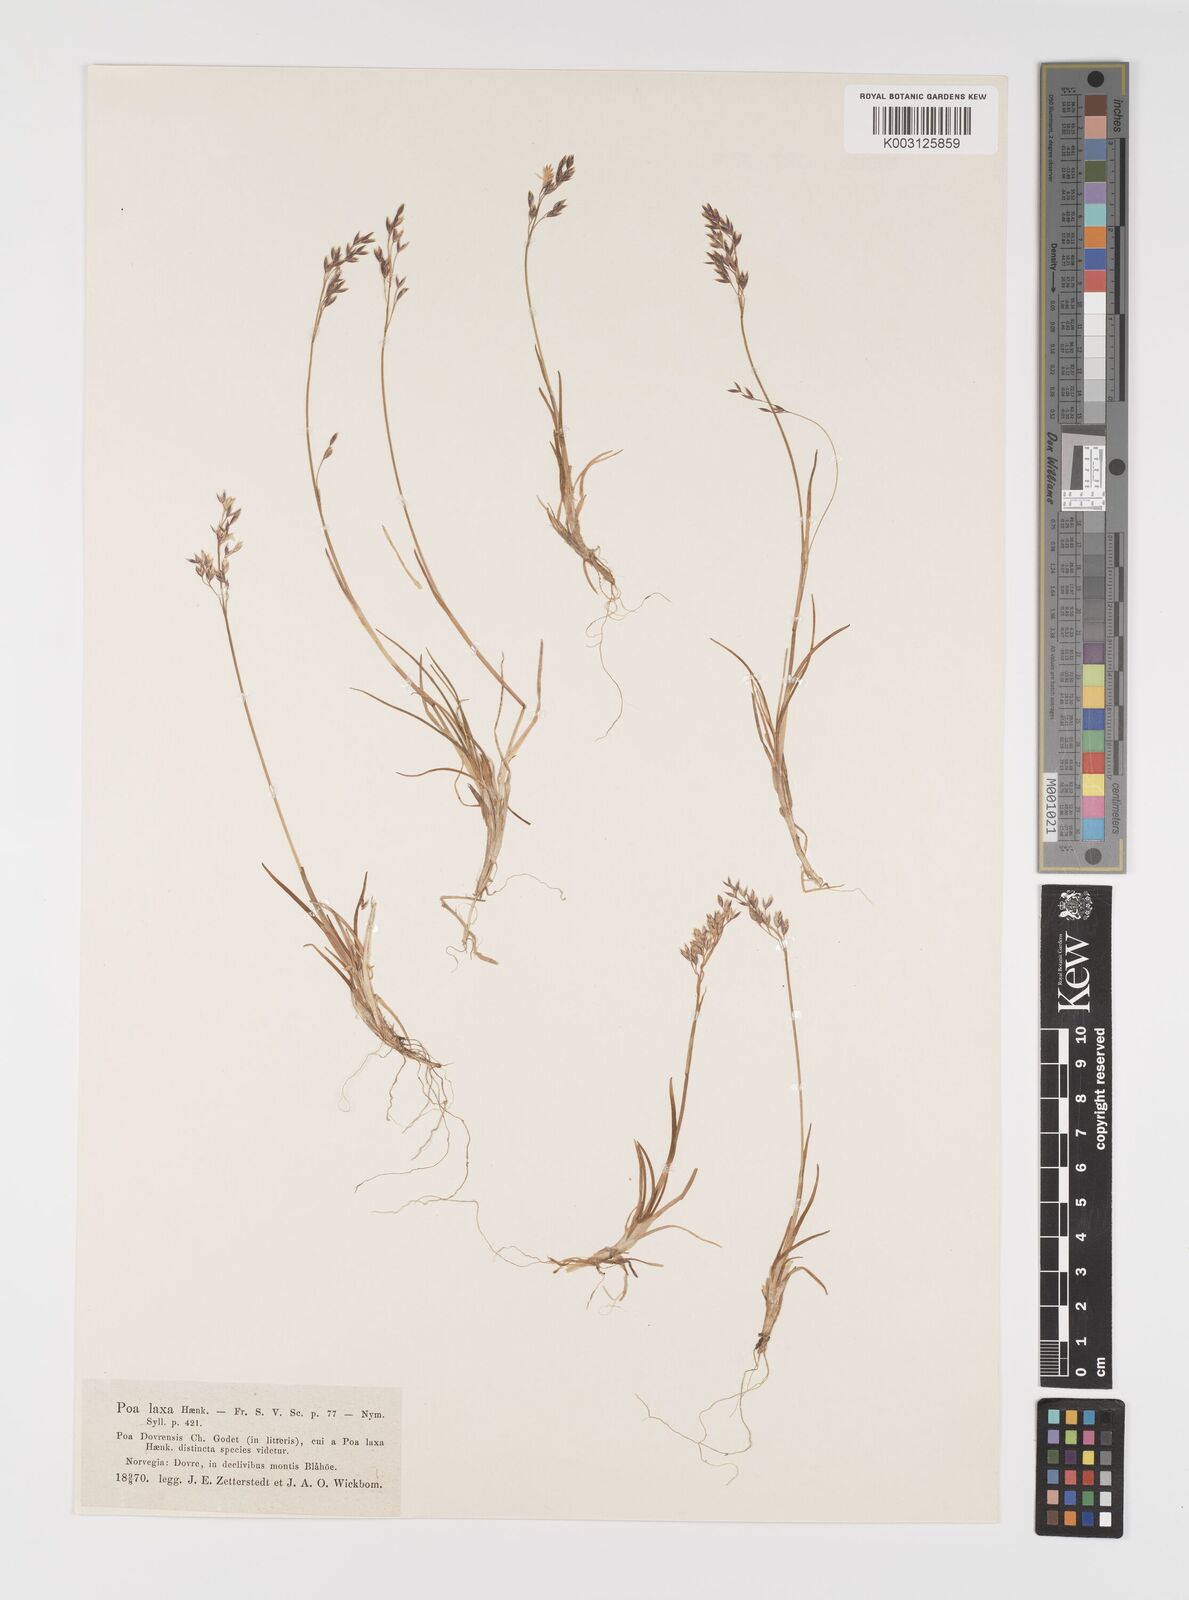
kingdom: Plantae
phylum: Tracheophyta
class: Liliopsida
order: Poales
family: Poaceae
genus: Eragrostis
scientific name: Eragrostis cilianensis
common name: Stinkgrass
